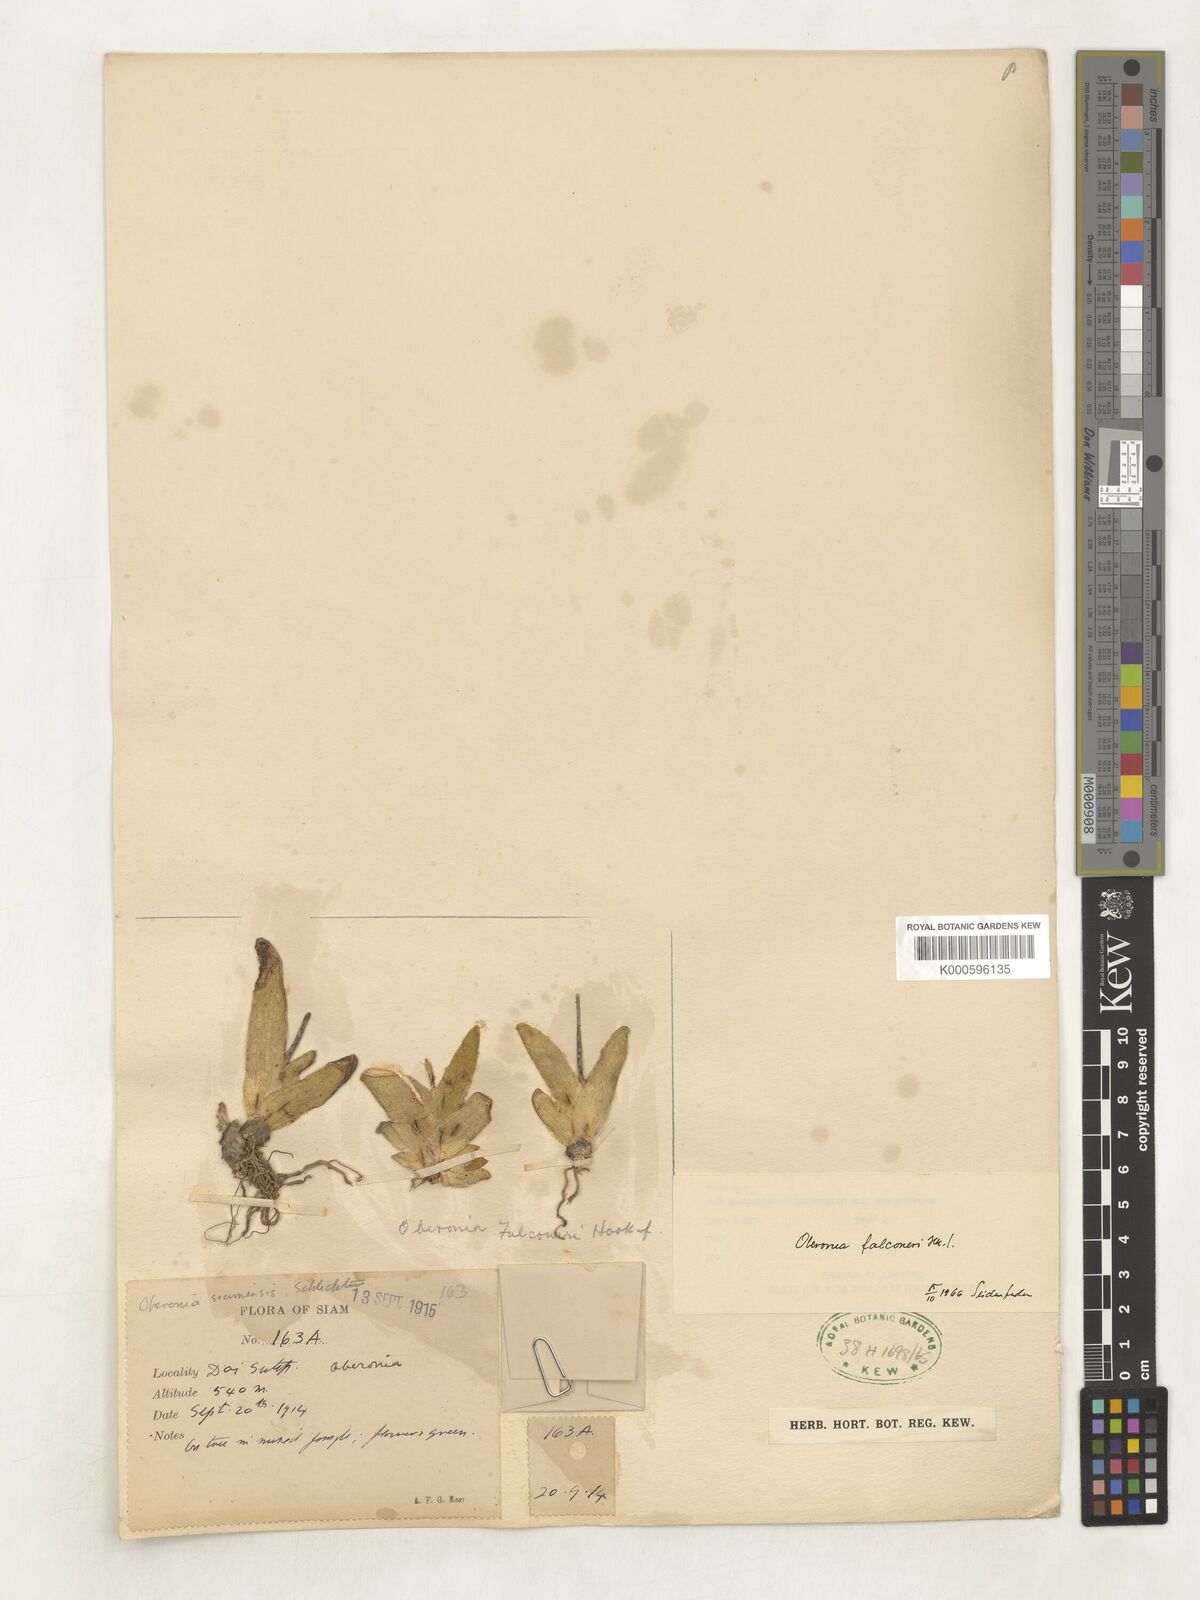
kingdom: Plantae
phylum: Tracheophyta
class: Liliopsida
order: Asparagales
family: Orchidaceae
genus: Oberonia
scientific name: Oberonia falconeri
